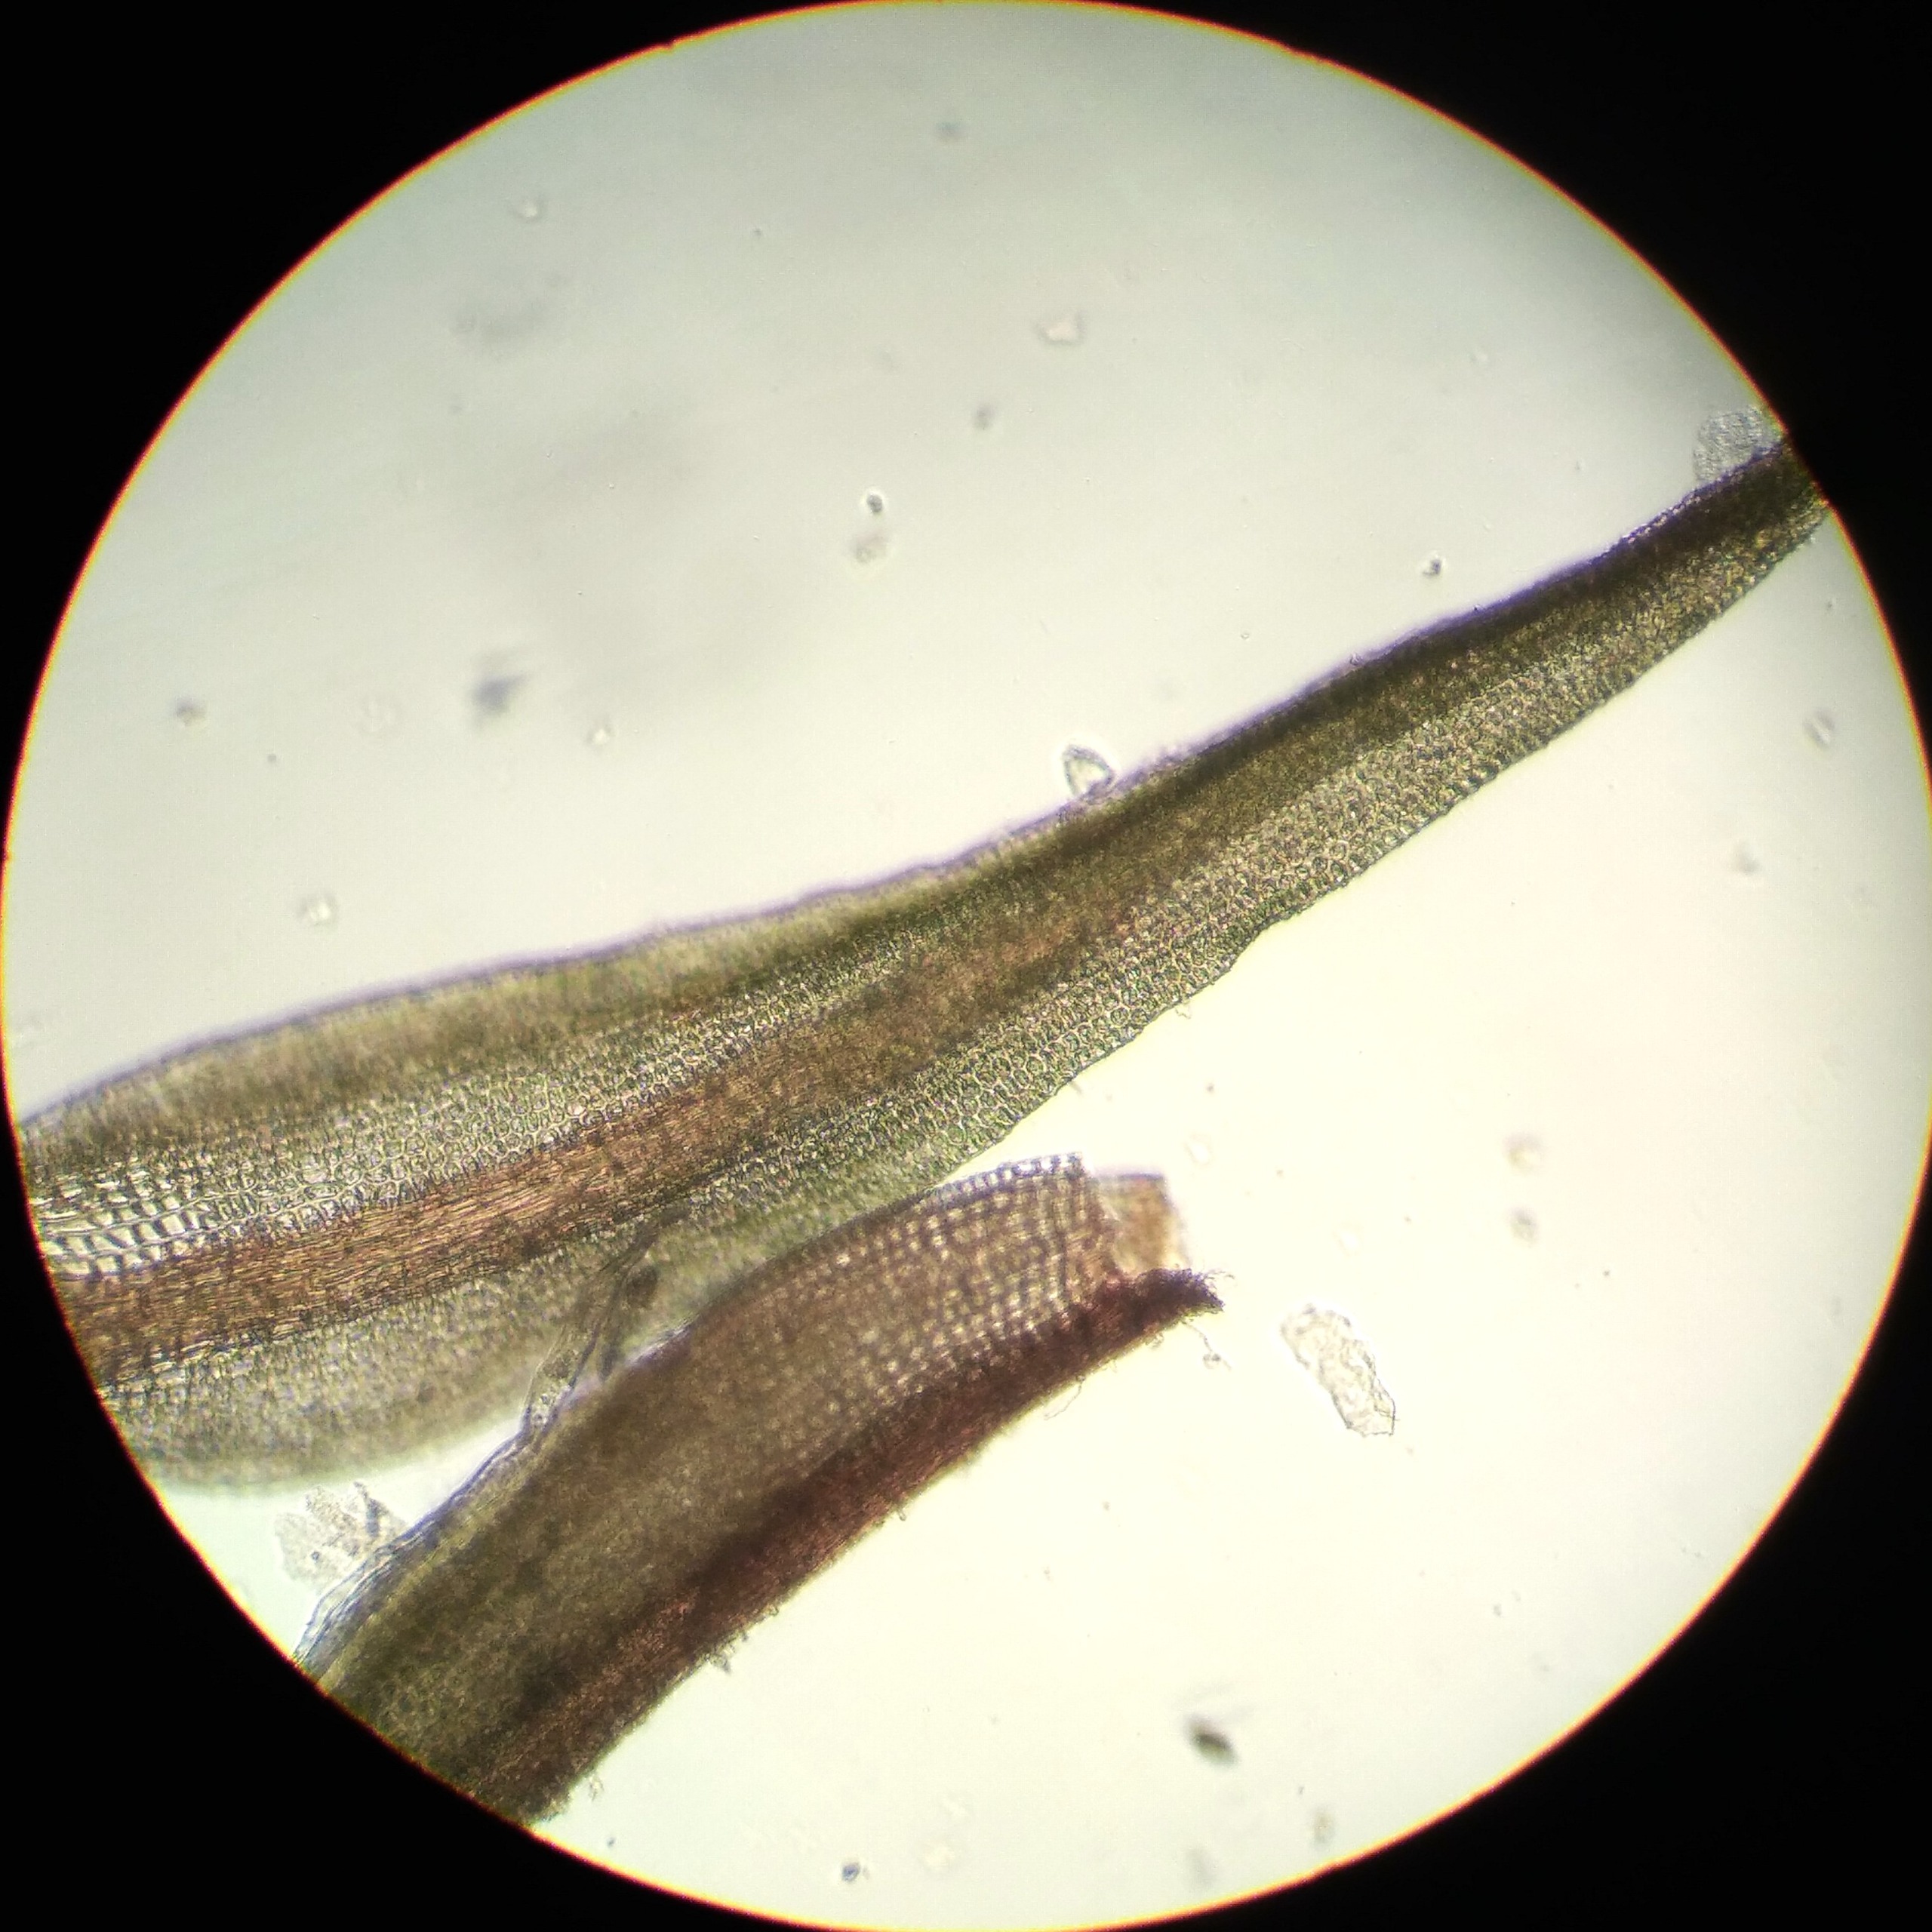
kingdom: Plantae
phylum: Bryophyta
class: Bryopsida
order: Pottiales
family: Pottiaceae
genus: Didymodon
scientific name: Didymodon rigidulus
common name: Stiv kalktuemos
